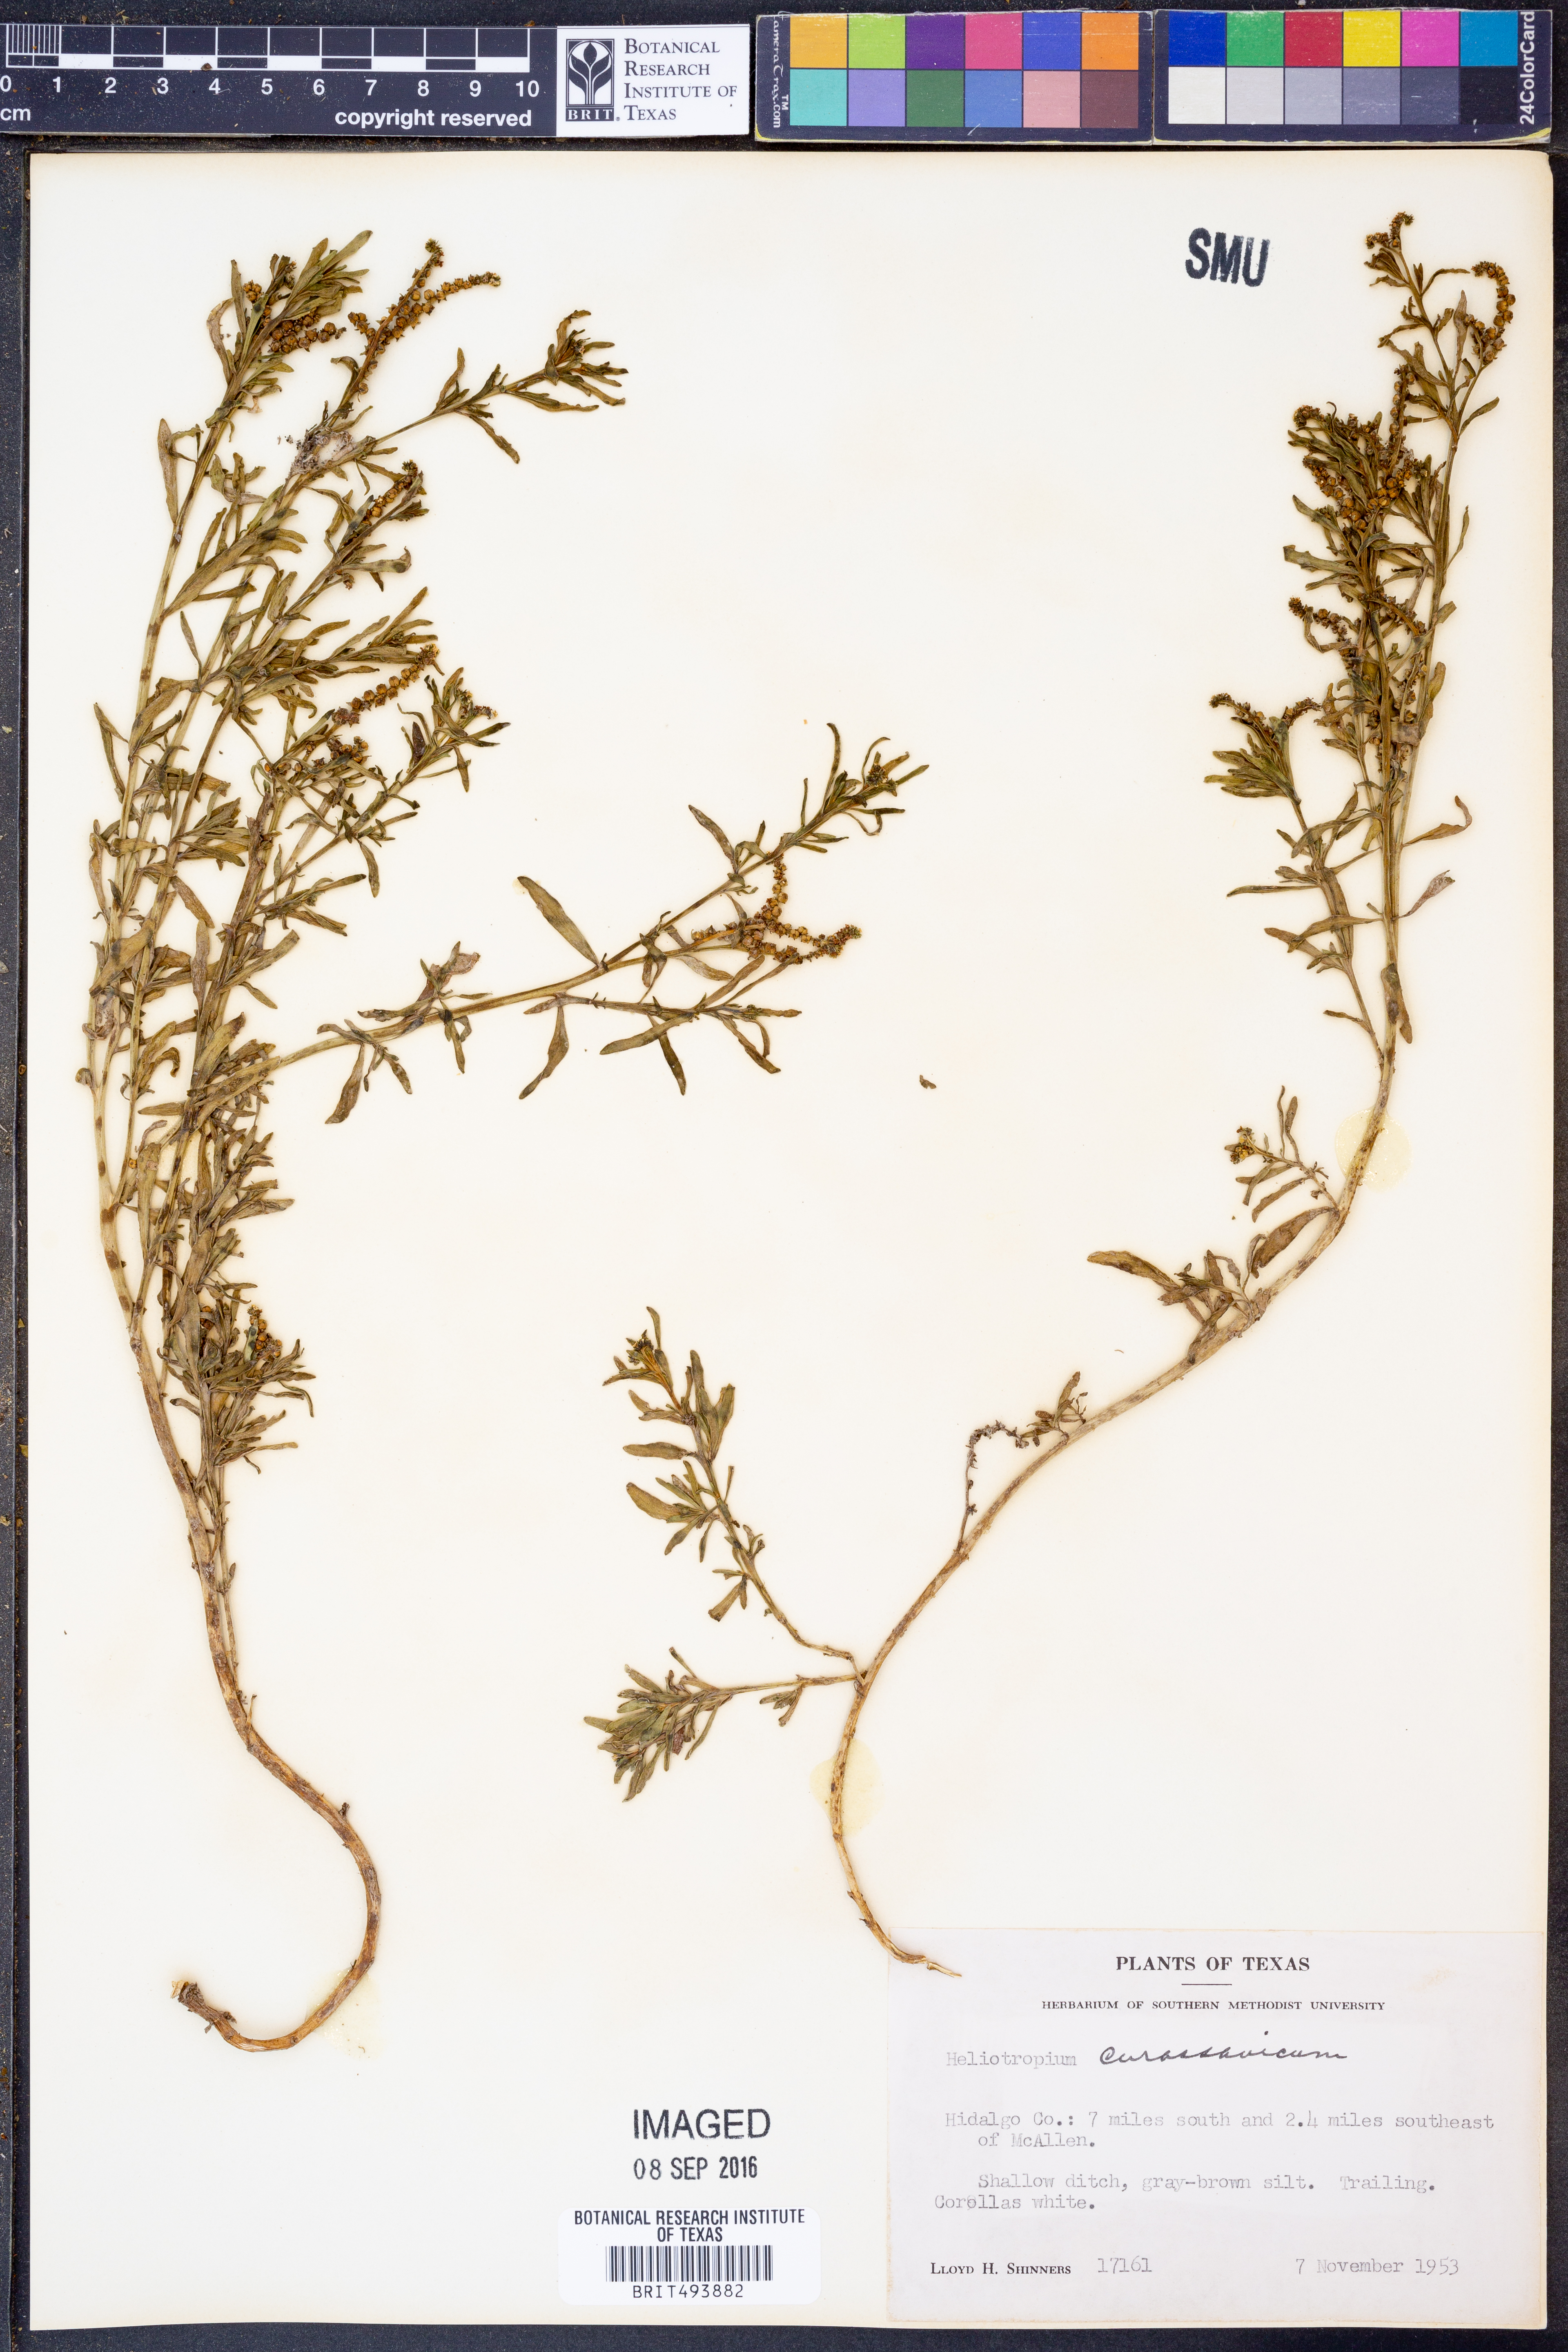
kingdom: Plantae
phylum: Tracheophyta
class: Magnoliopsida
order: Boraginales
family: Heliotropiaceae
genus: Heliotropium
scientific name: Heliotropium curassavicum
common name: Seaside heliotrope
